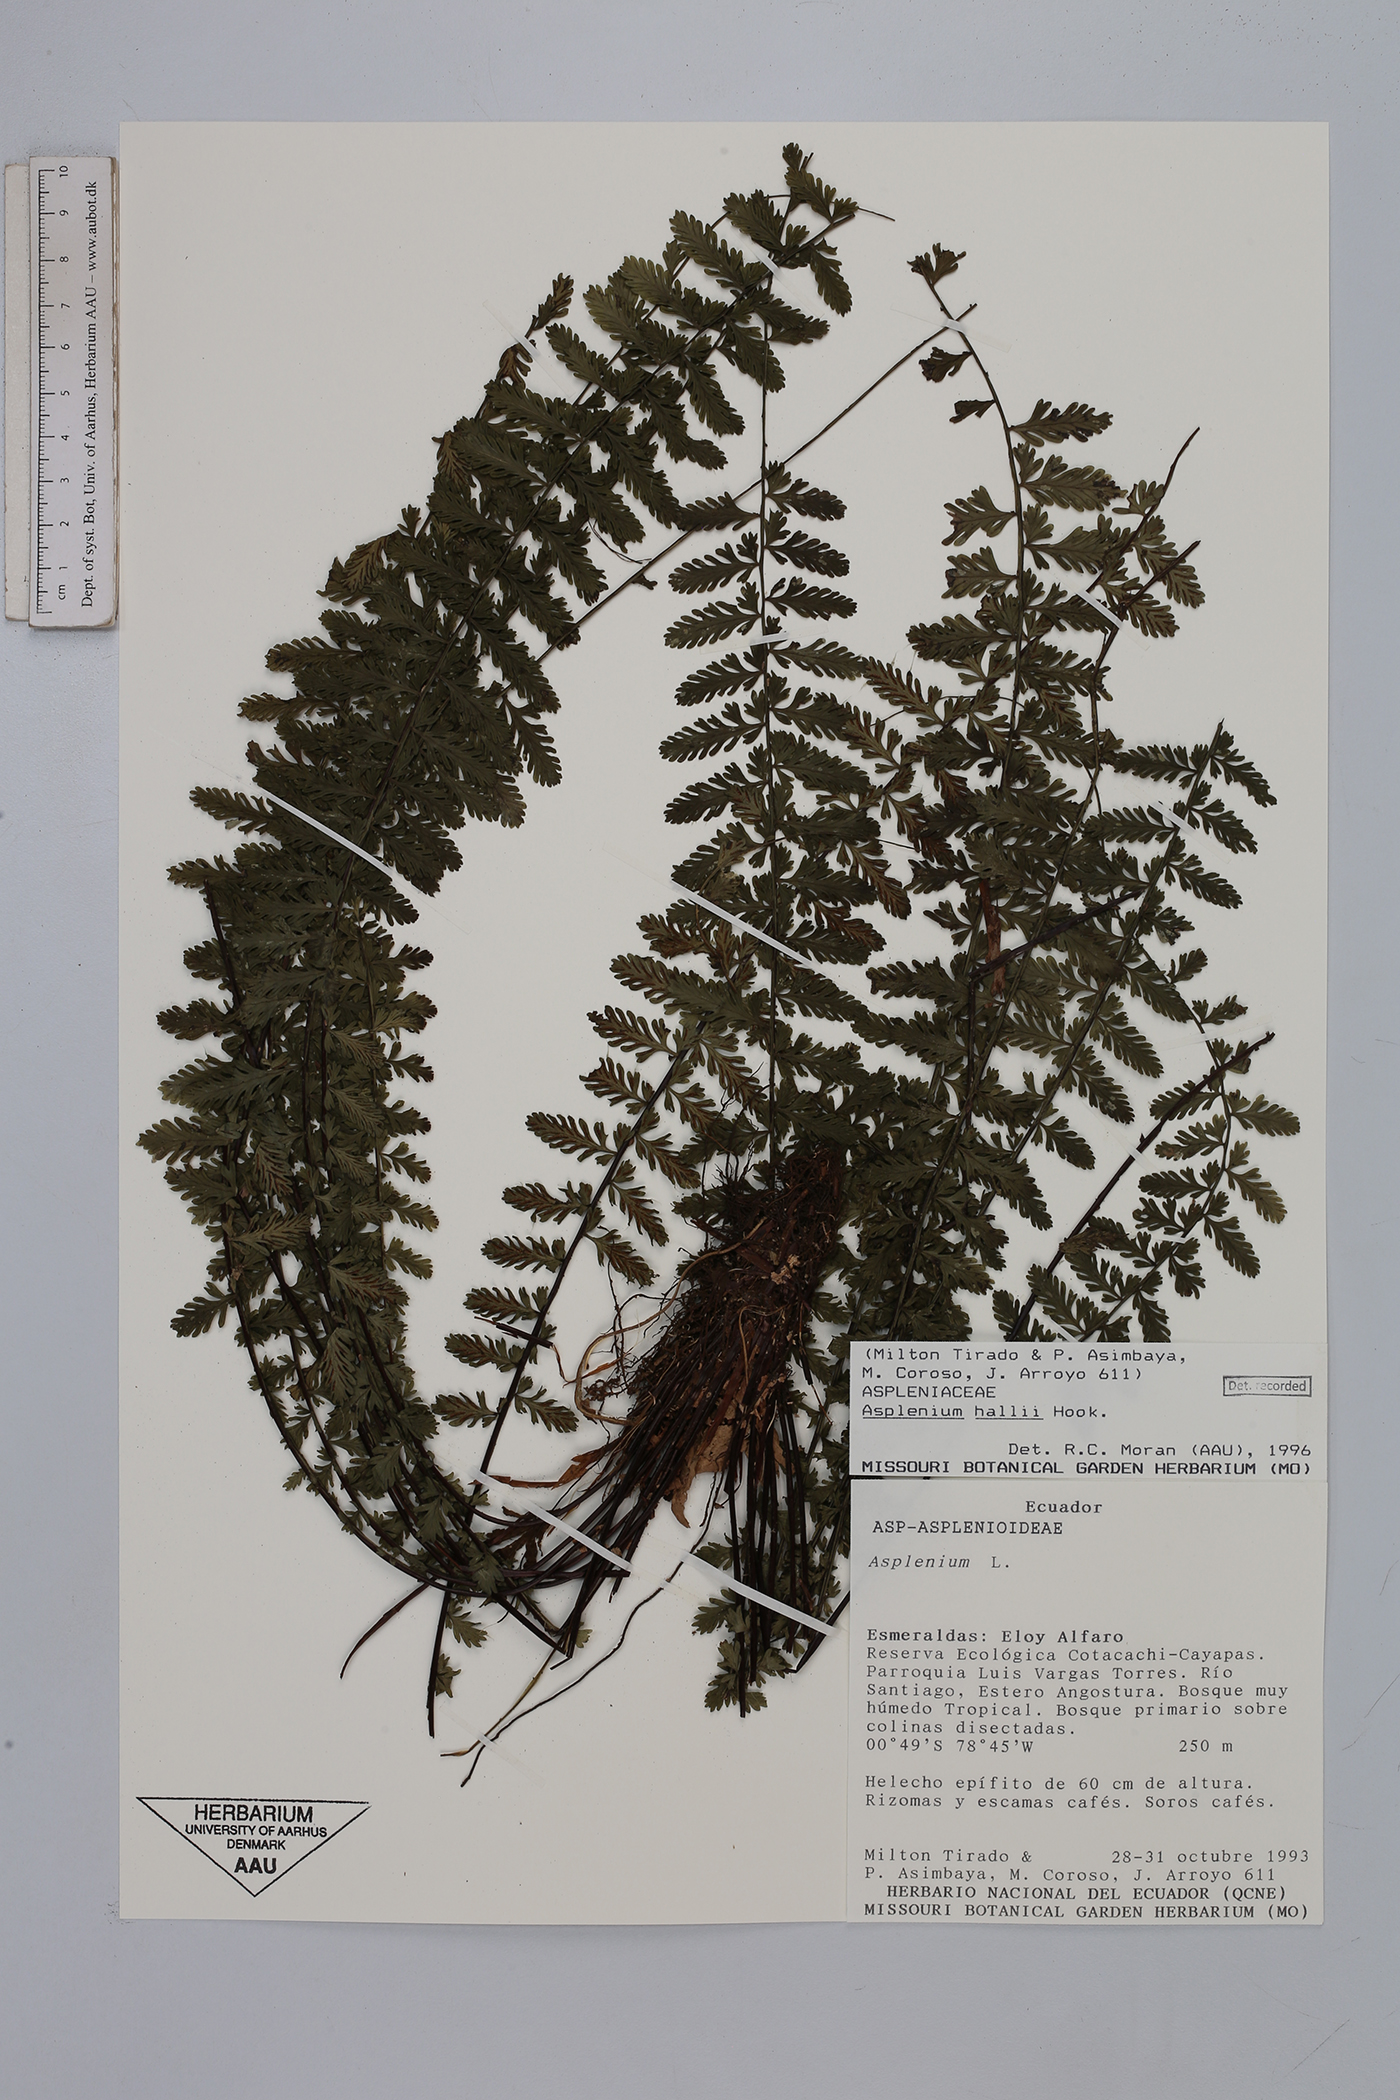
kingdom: Plantae
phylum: Tracheophyta
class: Polypodiopsida
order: Polypodiales
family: Aspleniaceae
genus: Asplenium
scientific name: Asplenium hallii
